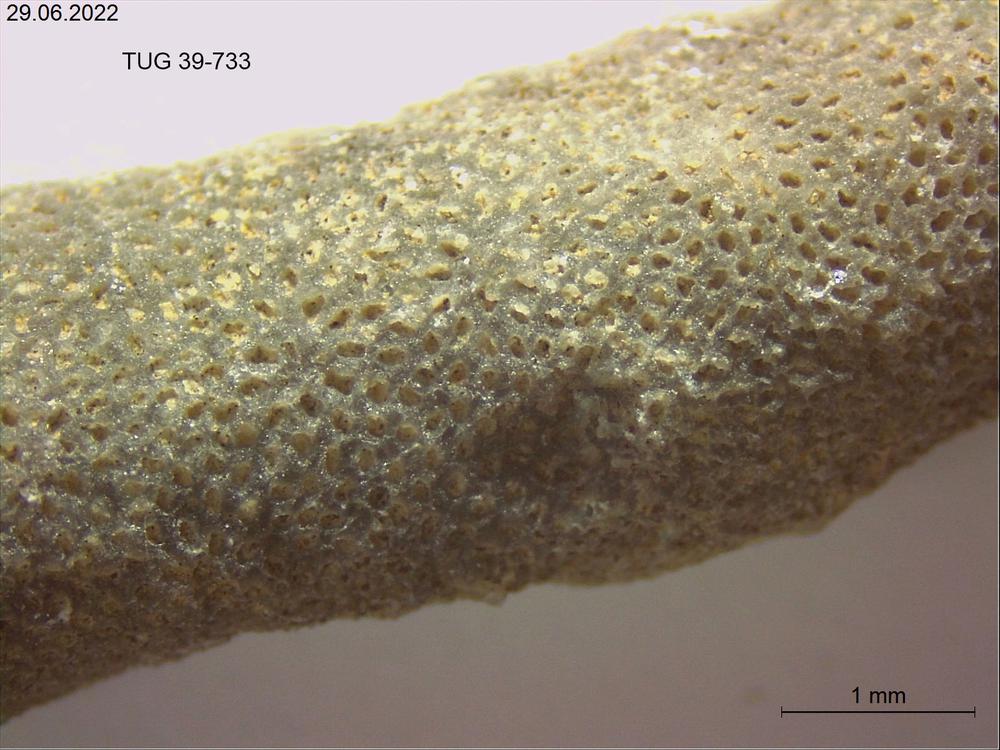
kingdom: Animalia
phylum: Bryozoa
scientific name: Bryozoa
